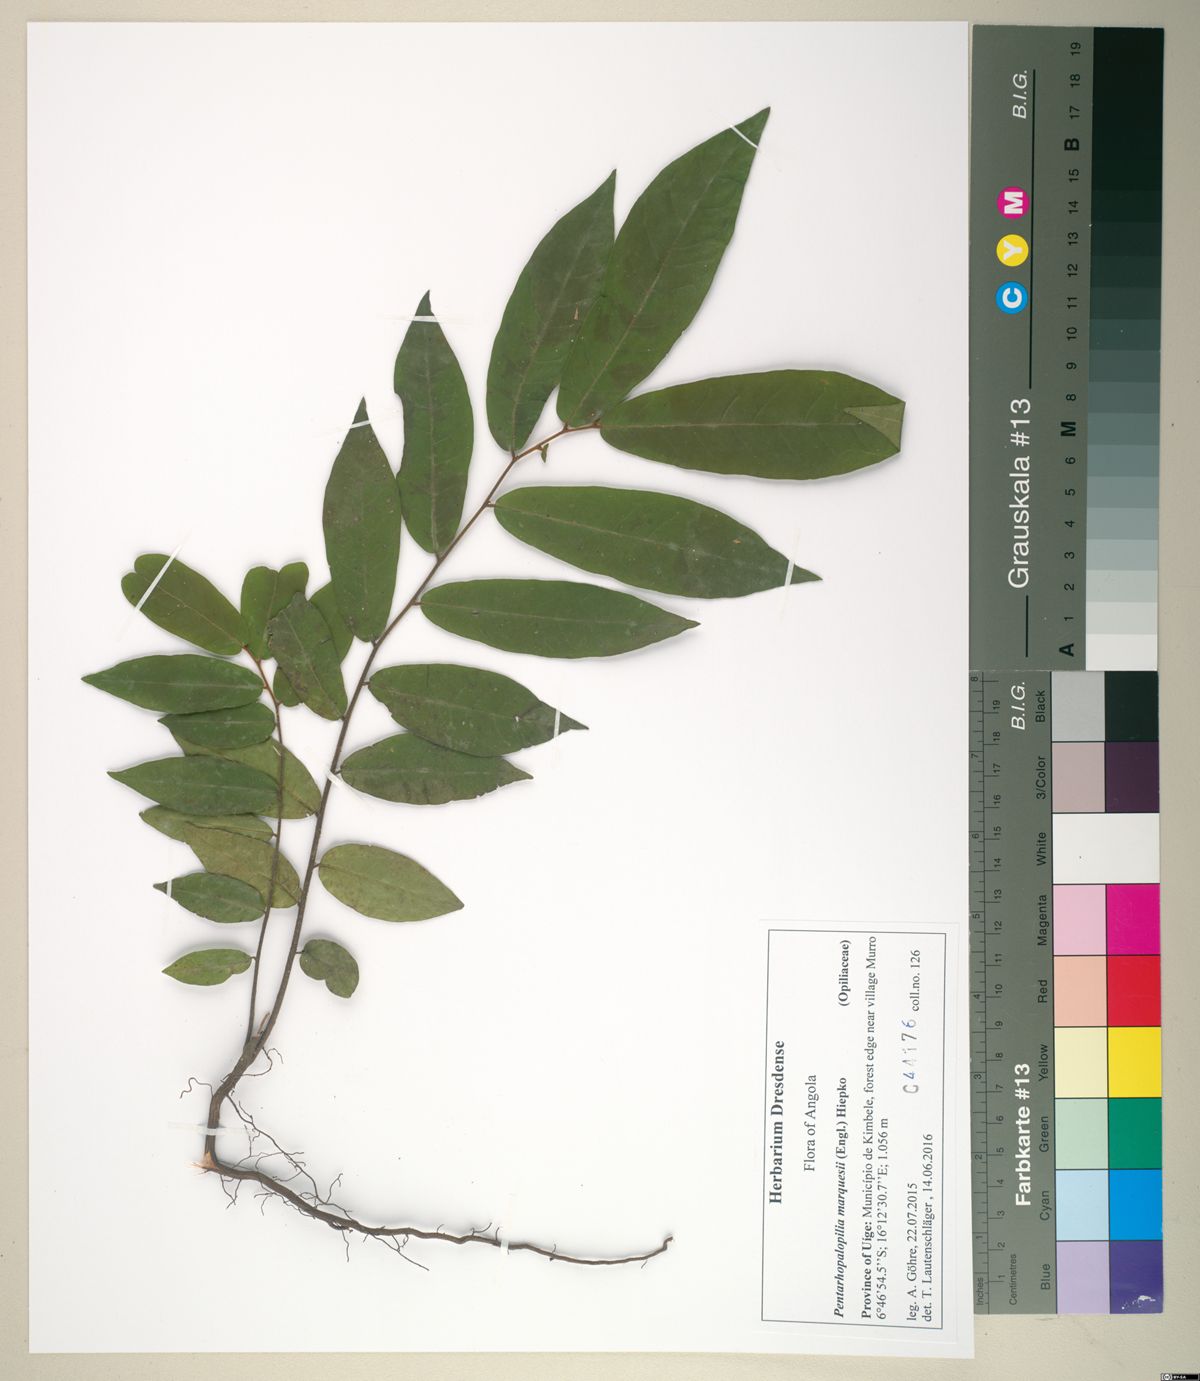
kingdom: Plantae
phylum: Tracheophyta
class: Magnoliopsida
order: Santalales
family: Opiliaceae
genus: Pentarhopalopilia
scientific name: Pentarhopalopilia marquesii
